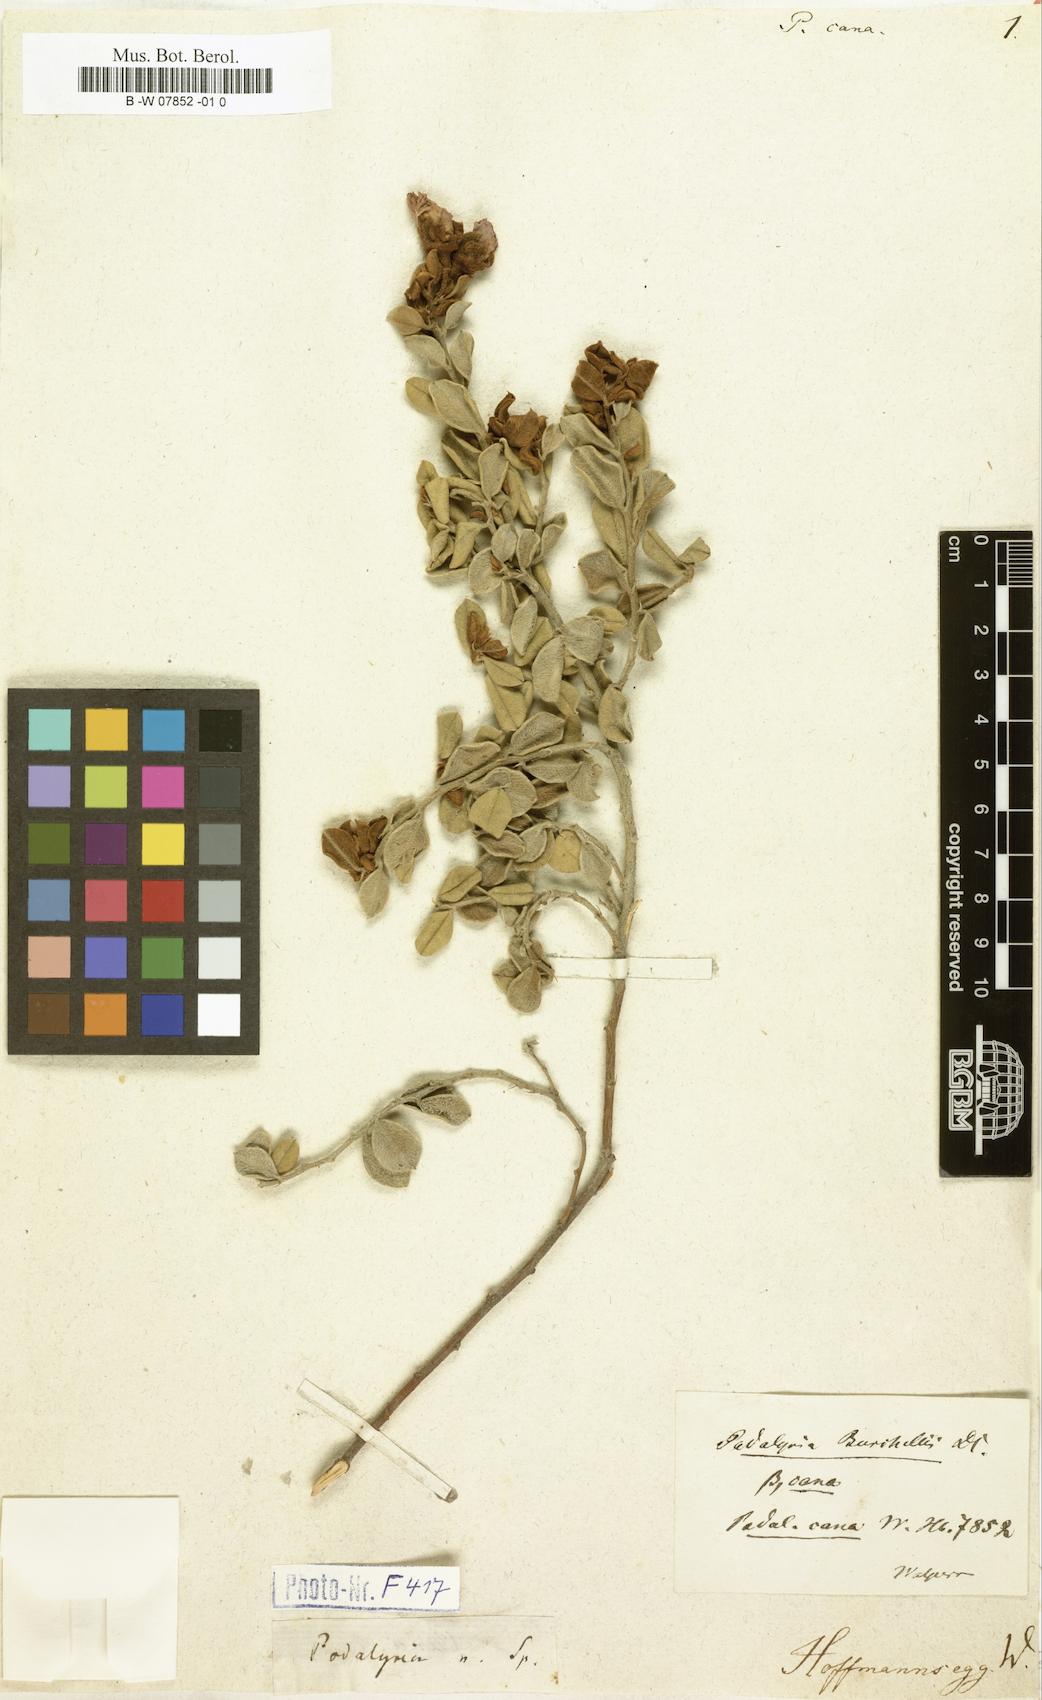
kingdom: Plantae
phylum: Tracheophyta
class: Magnoliopsida
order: Fabales
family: Fabaceae
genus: Podalyria
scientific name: Podalyria burchellii
